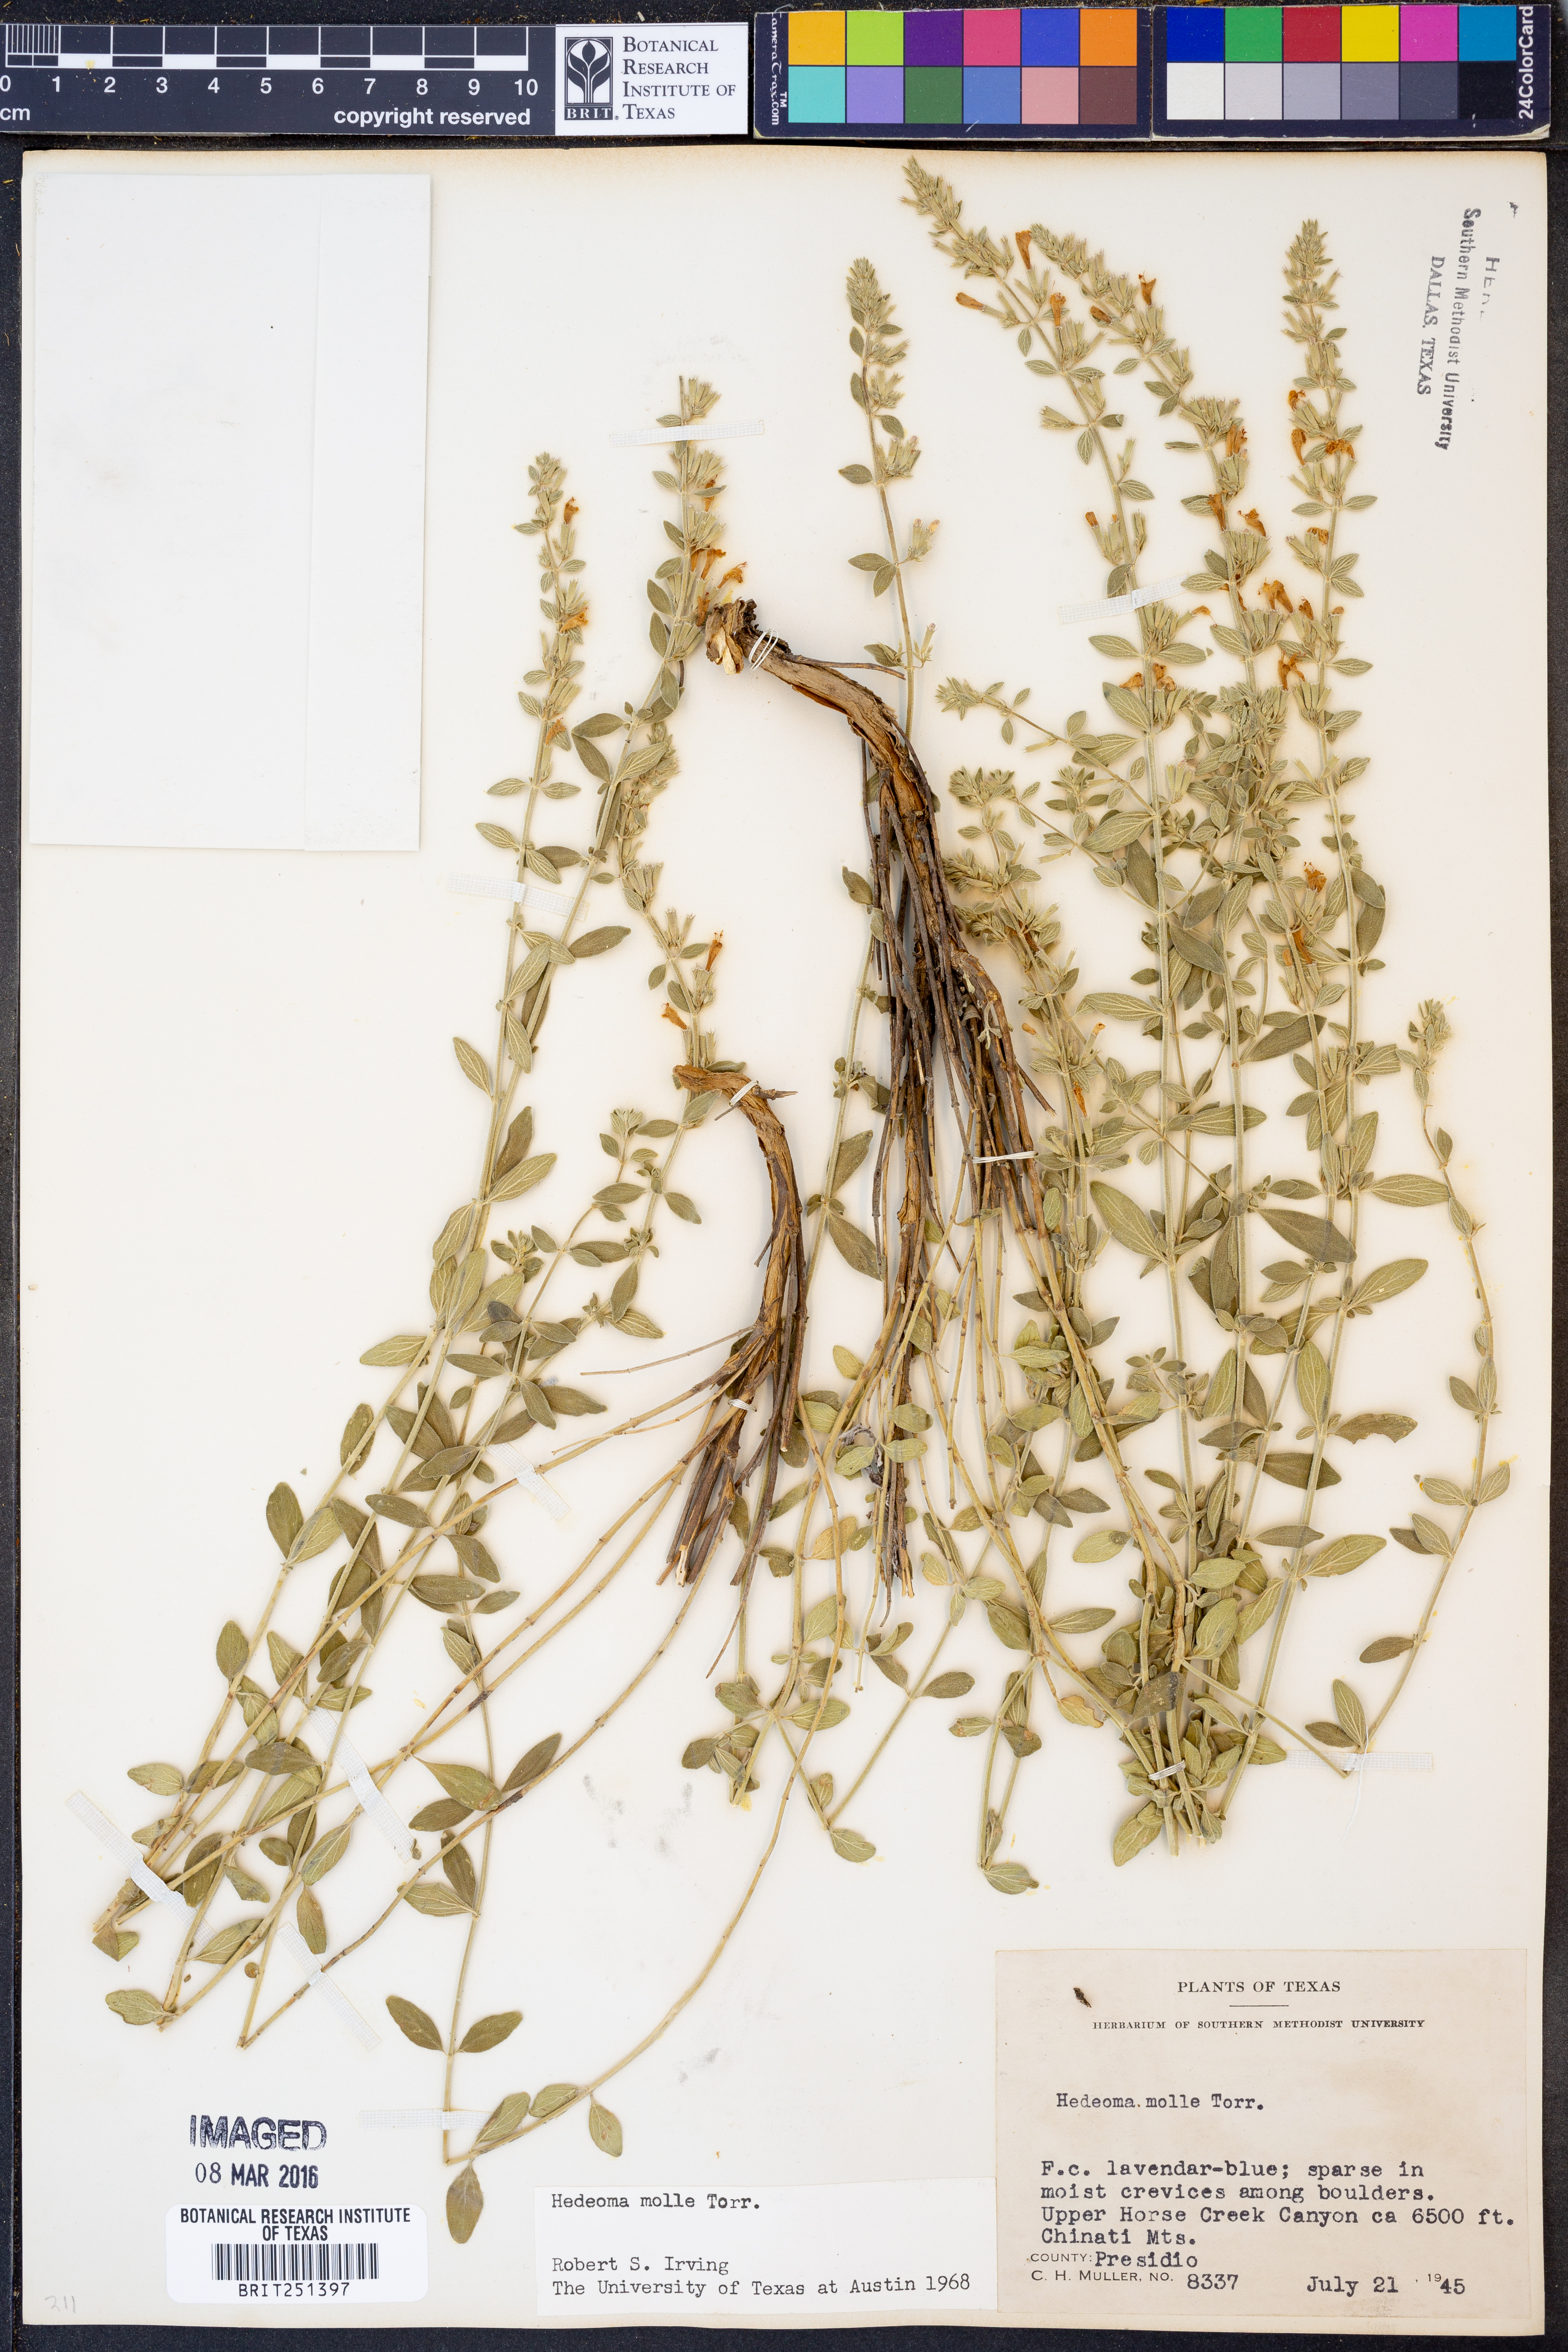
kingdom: Plantae
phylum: Tracheophyta
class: Magnoliopsida
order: Lamiales
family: Lamiaceae
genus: Hedeoma
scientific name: Hedeoma mollis
